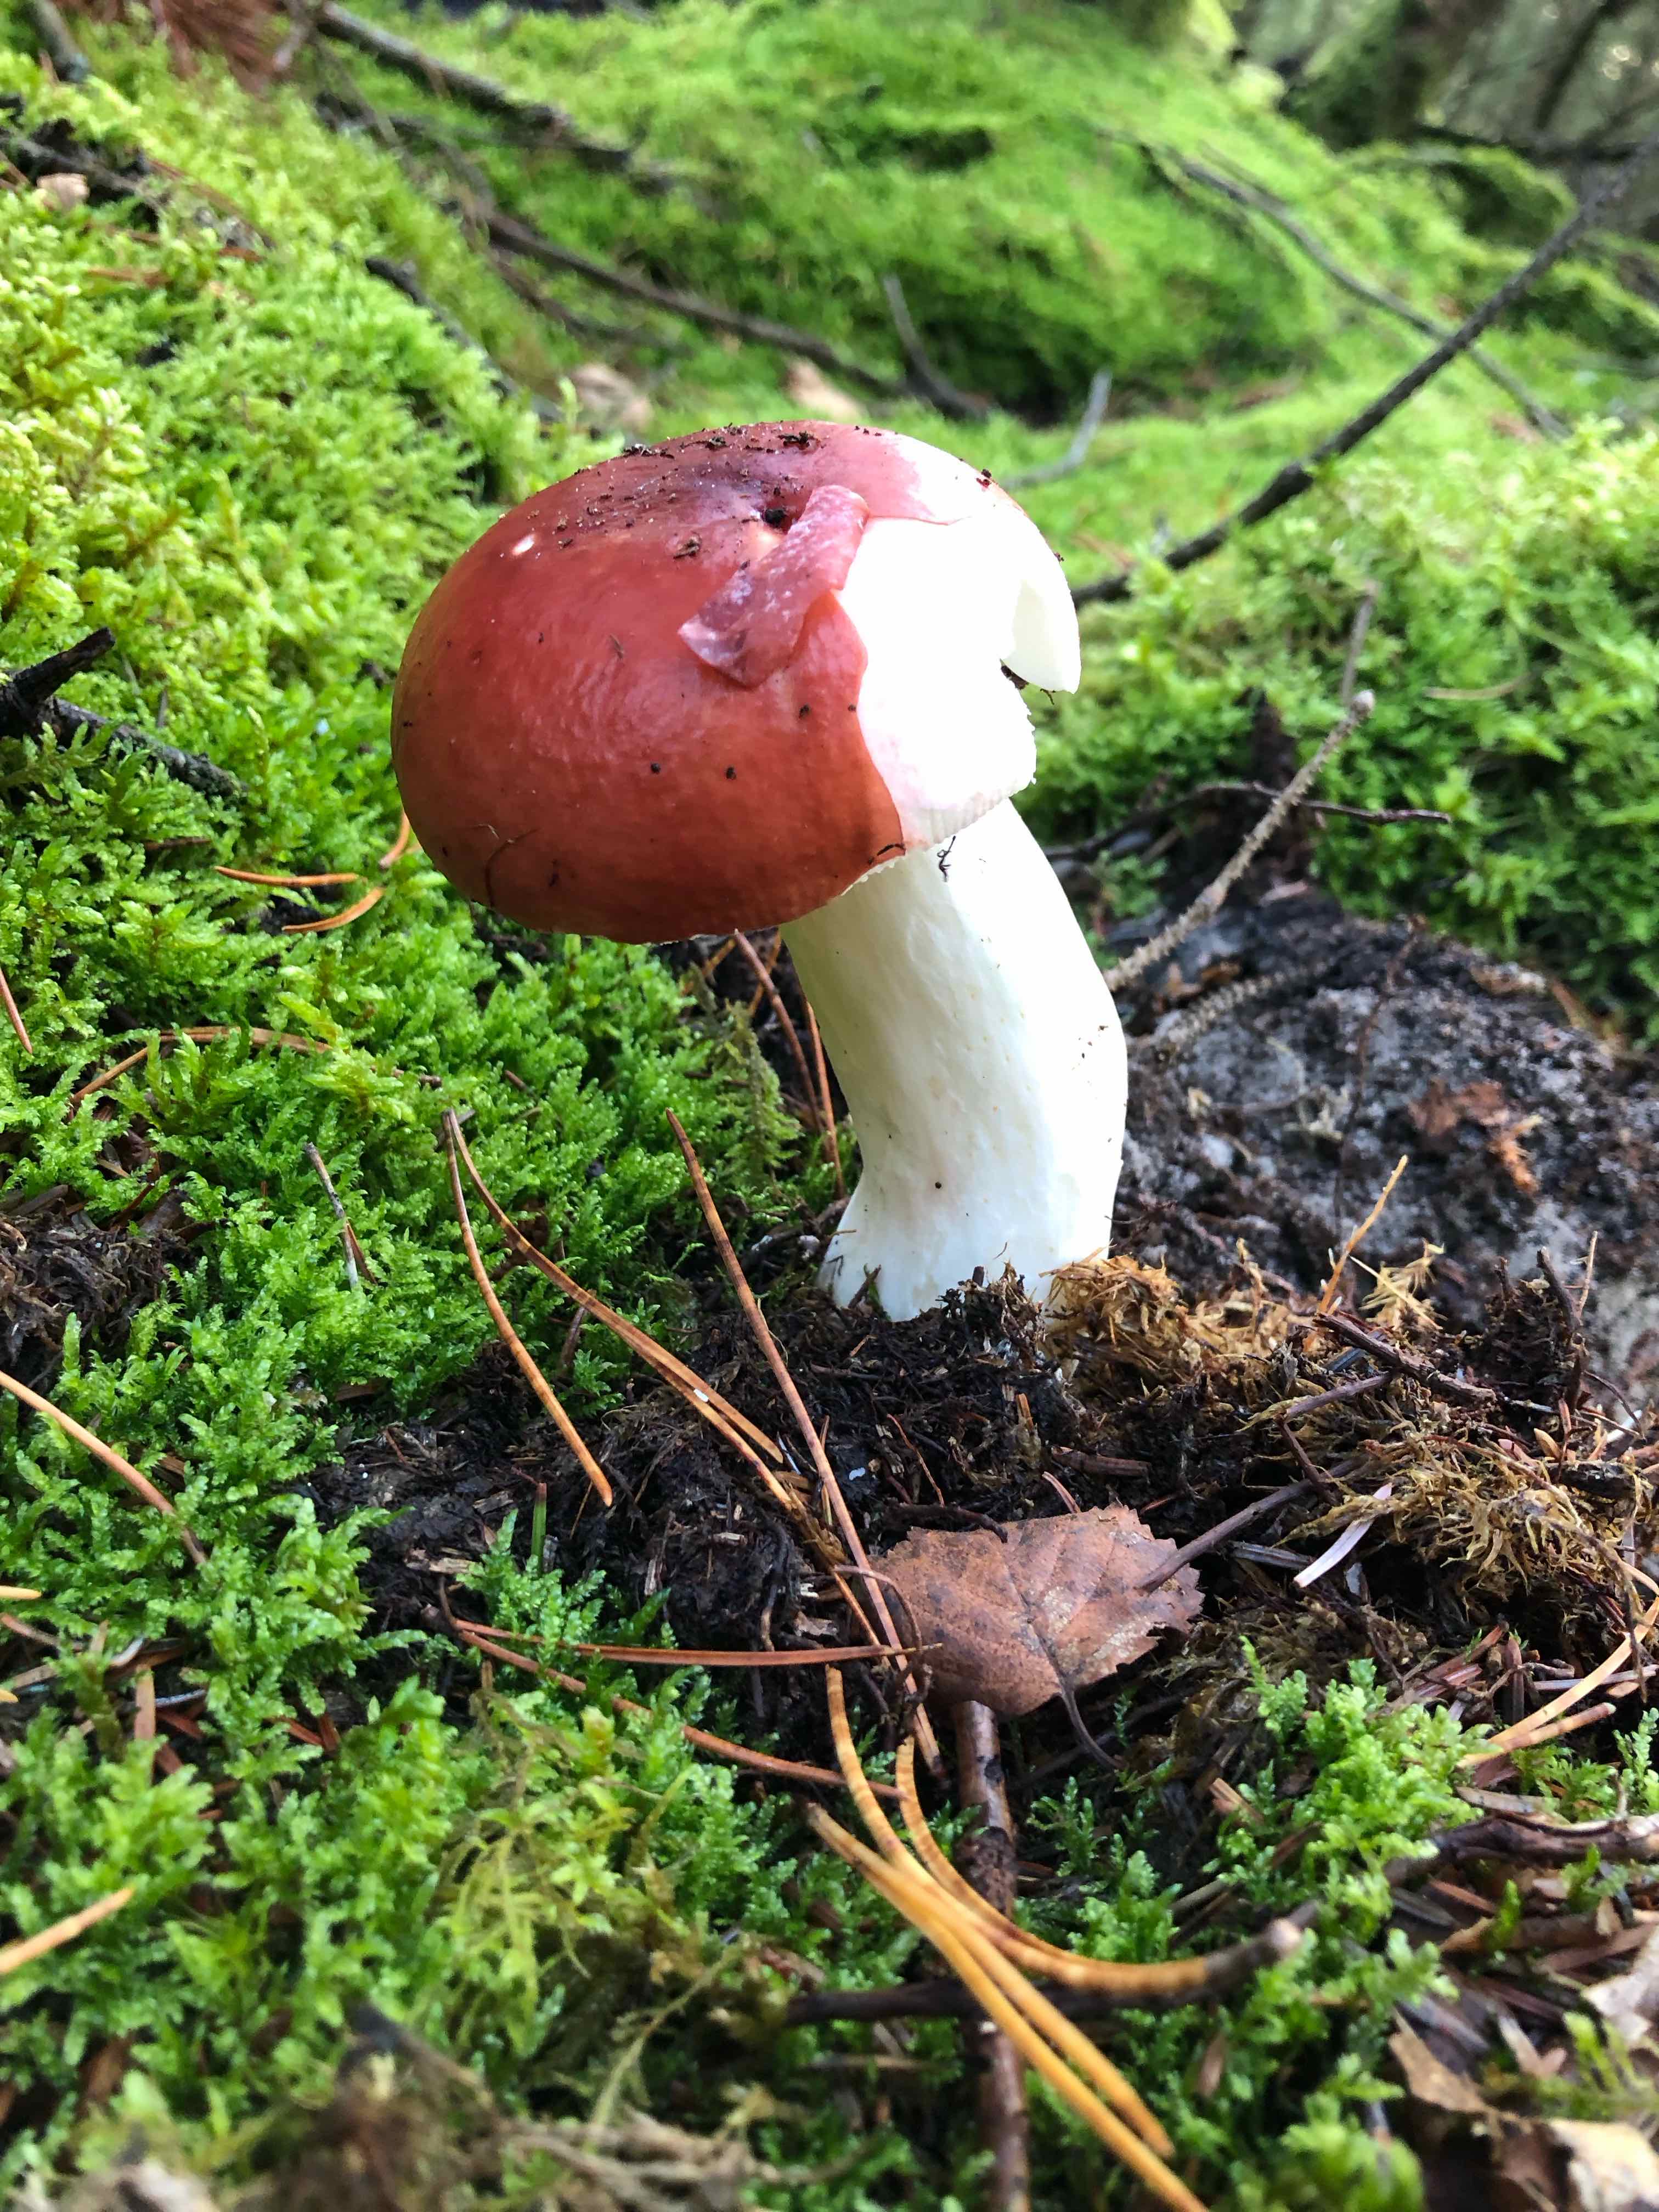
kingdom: Fungi
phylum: Basidiomycota
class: Agaricomycetes
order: Russulales
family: Russulaceae
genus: Russula
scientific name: Russula paludosa
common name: prægtig skørhat
